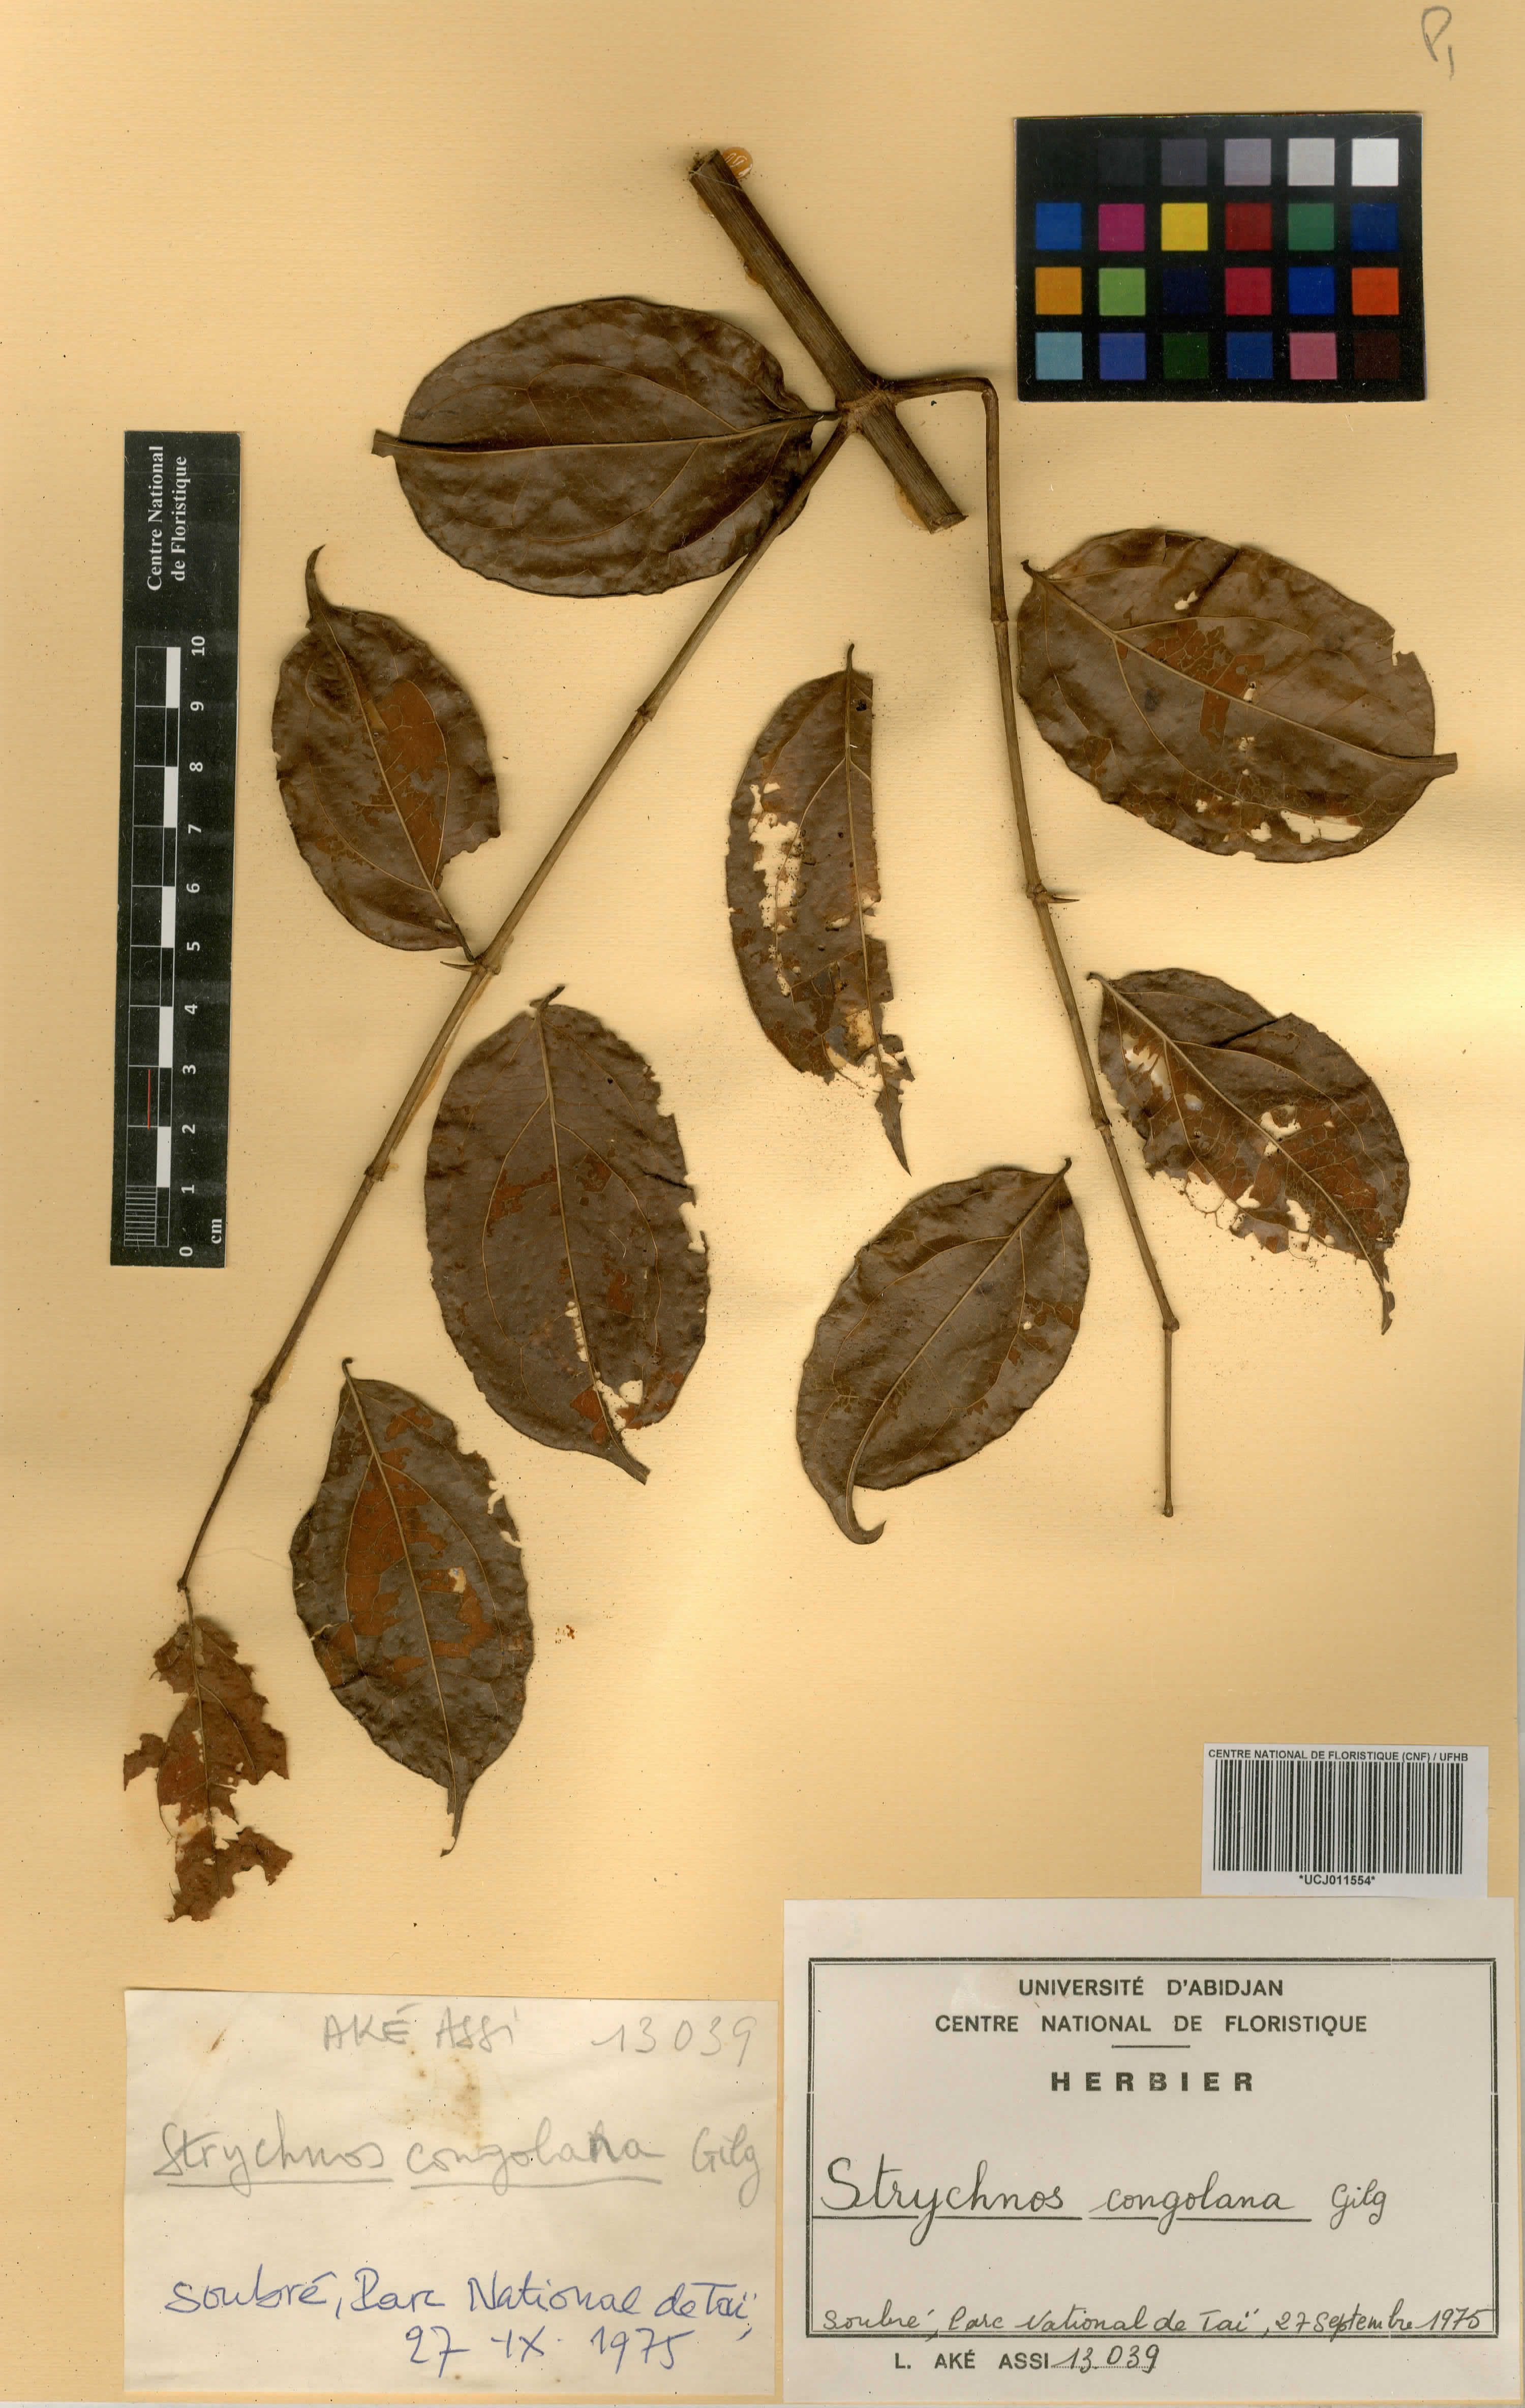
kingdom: Plantae
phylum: Tracheophyta
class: Magnoliopsida
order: Gentianales
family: Loganiaceae
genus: Strychnos
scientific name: Strychnos congolana
